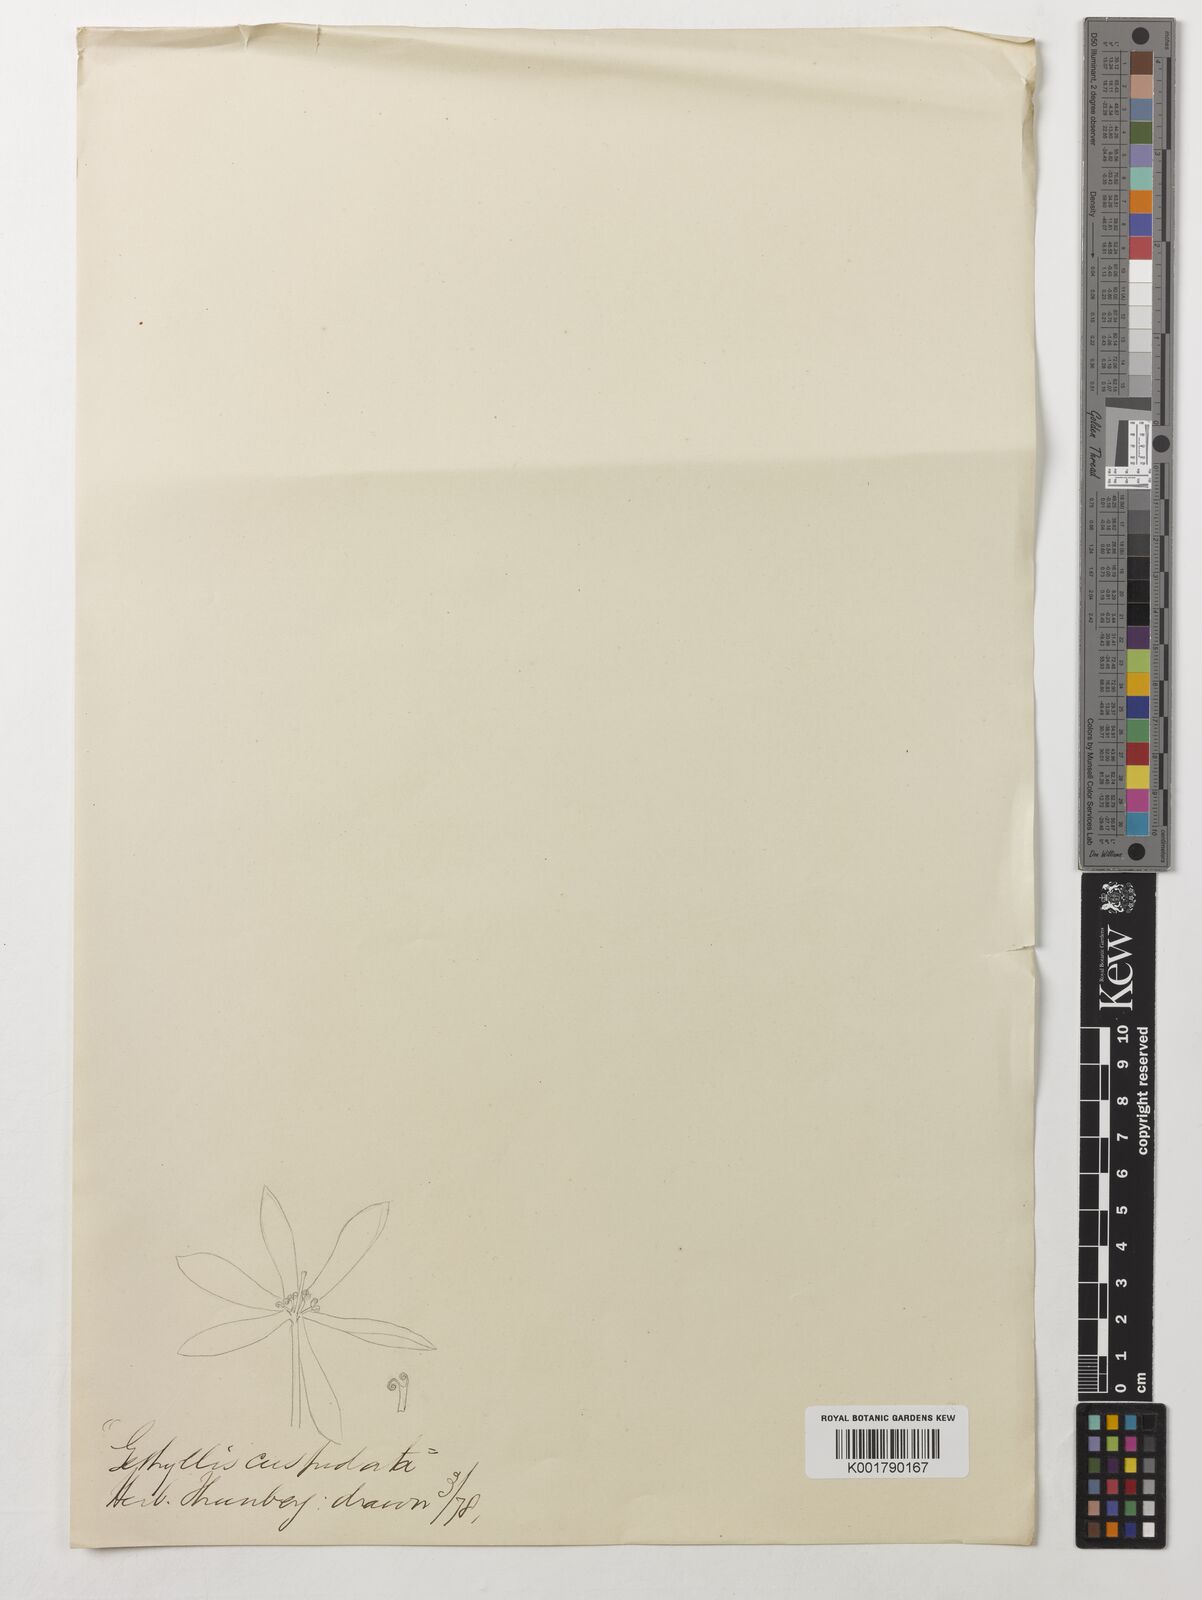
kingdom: Plantae
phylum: Tracheophyta
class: Liliopsida
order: Asparagales
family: Amaryllidaceae
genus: Gethyllis
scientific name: Gethyllis ciliaris
